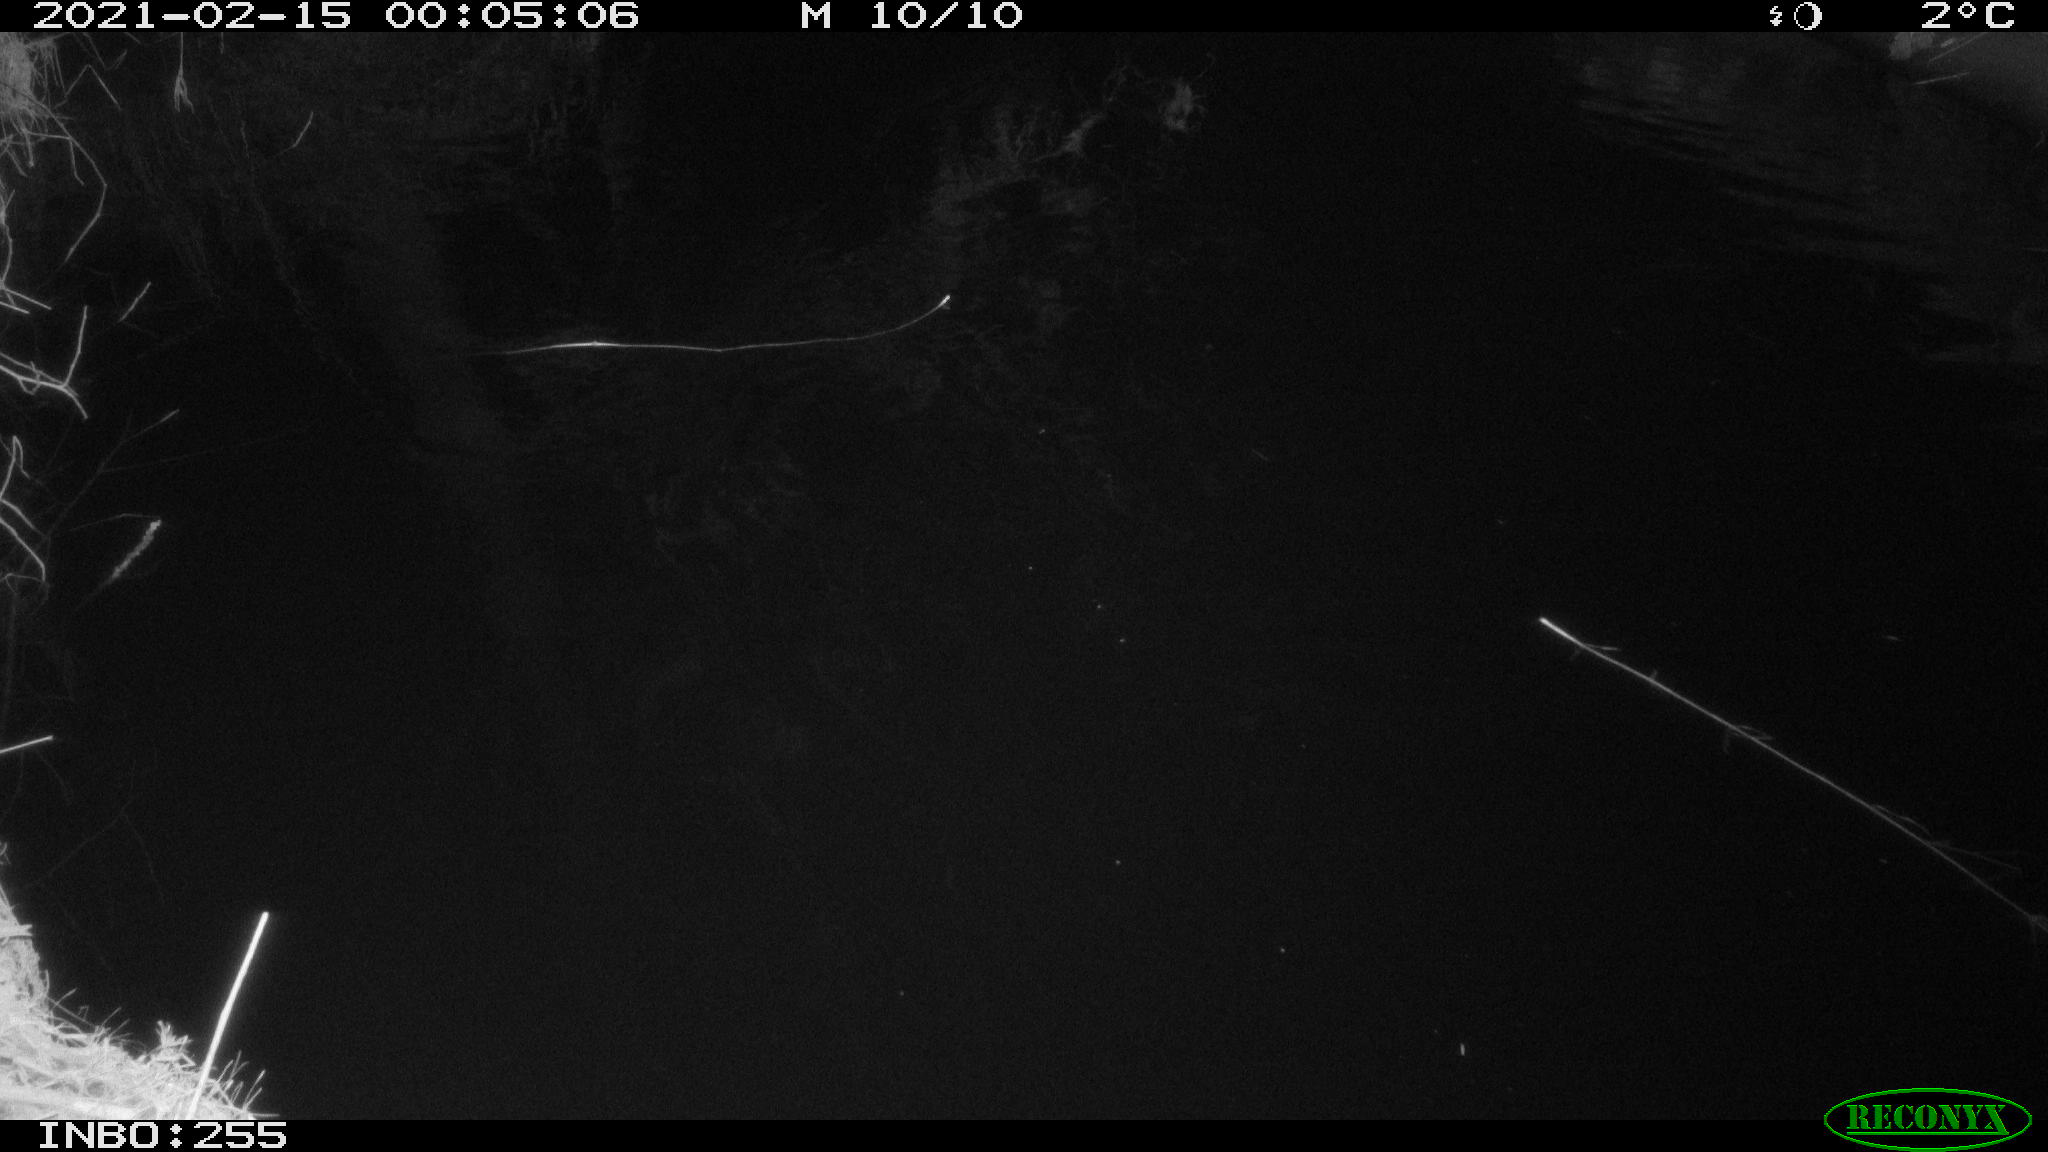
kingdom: Animalia
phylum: Chordata
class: Aves
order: Anseriformes
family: Anatidae
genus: Anas
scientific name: Anas platyrhynchos
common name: Mallard
